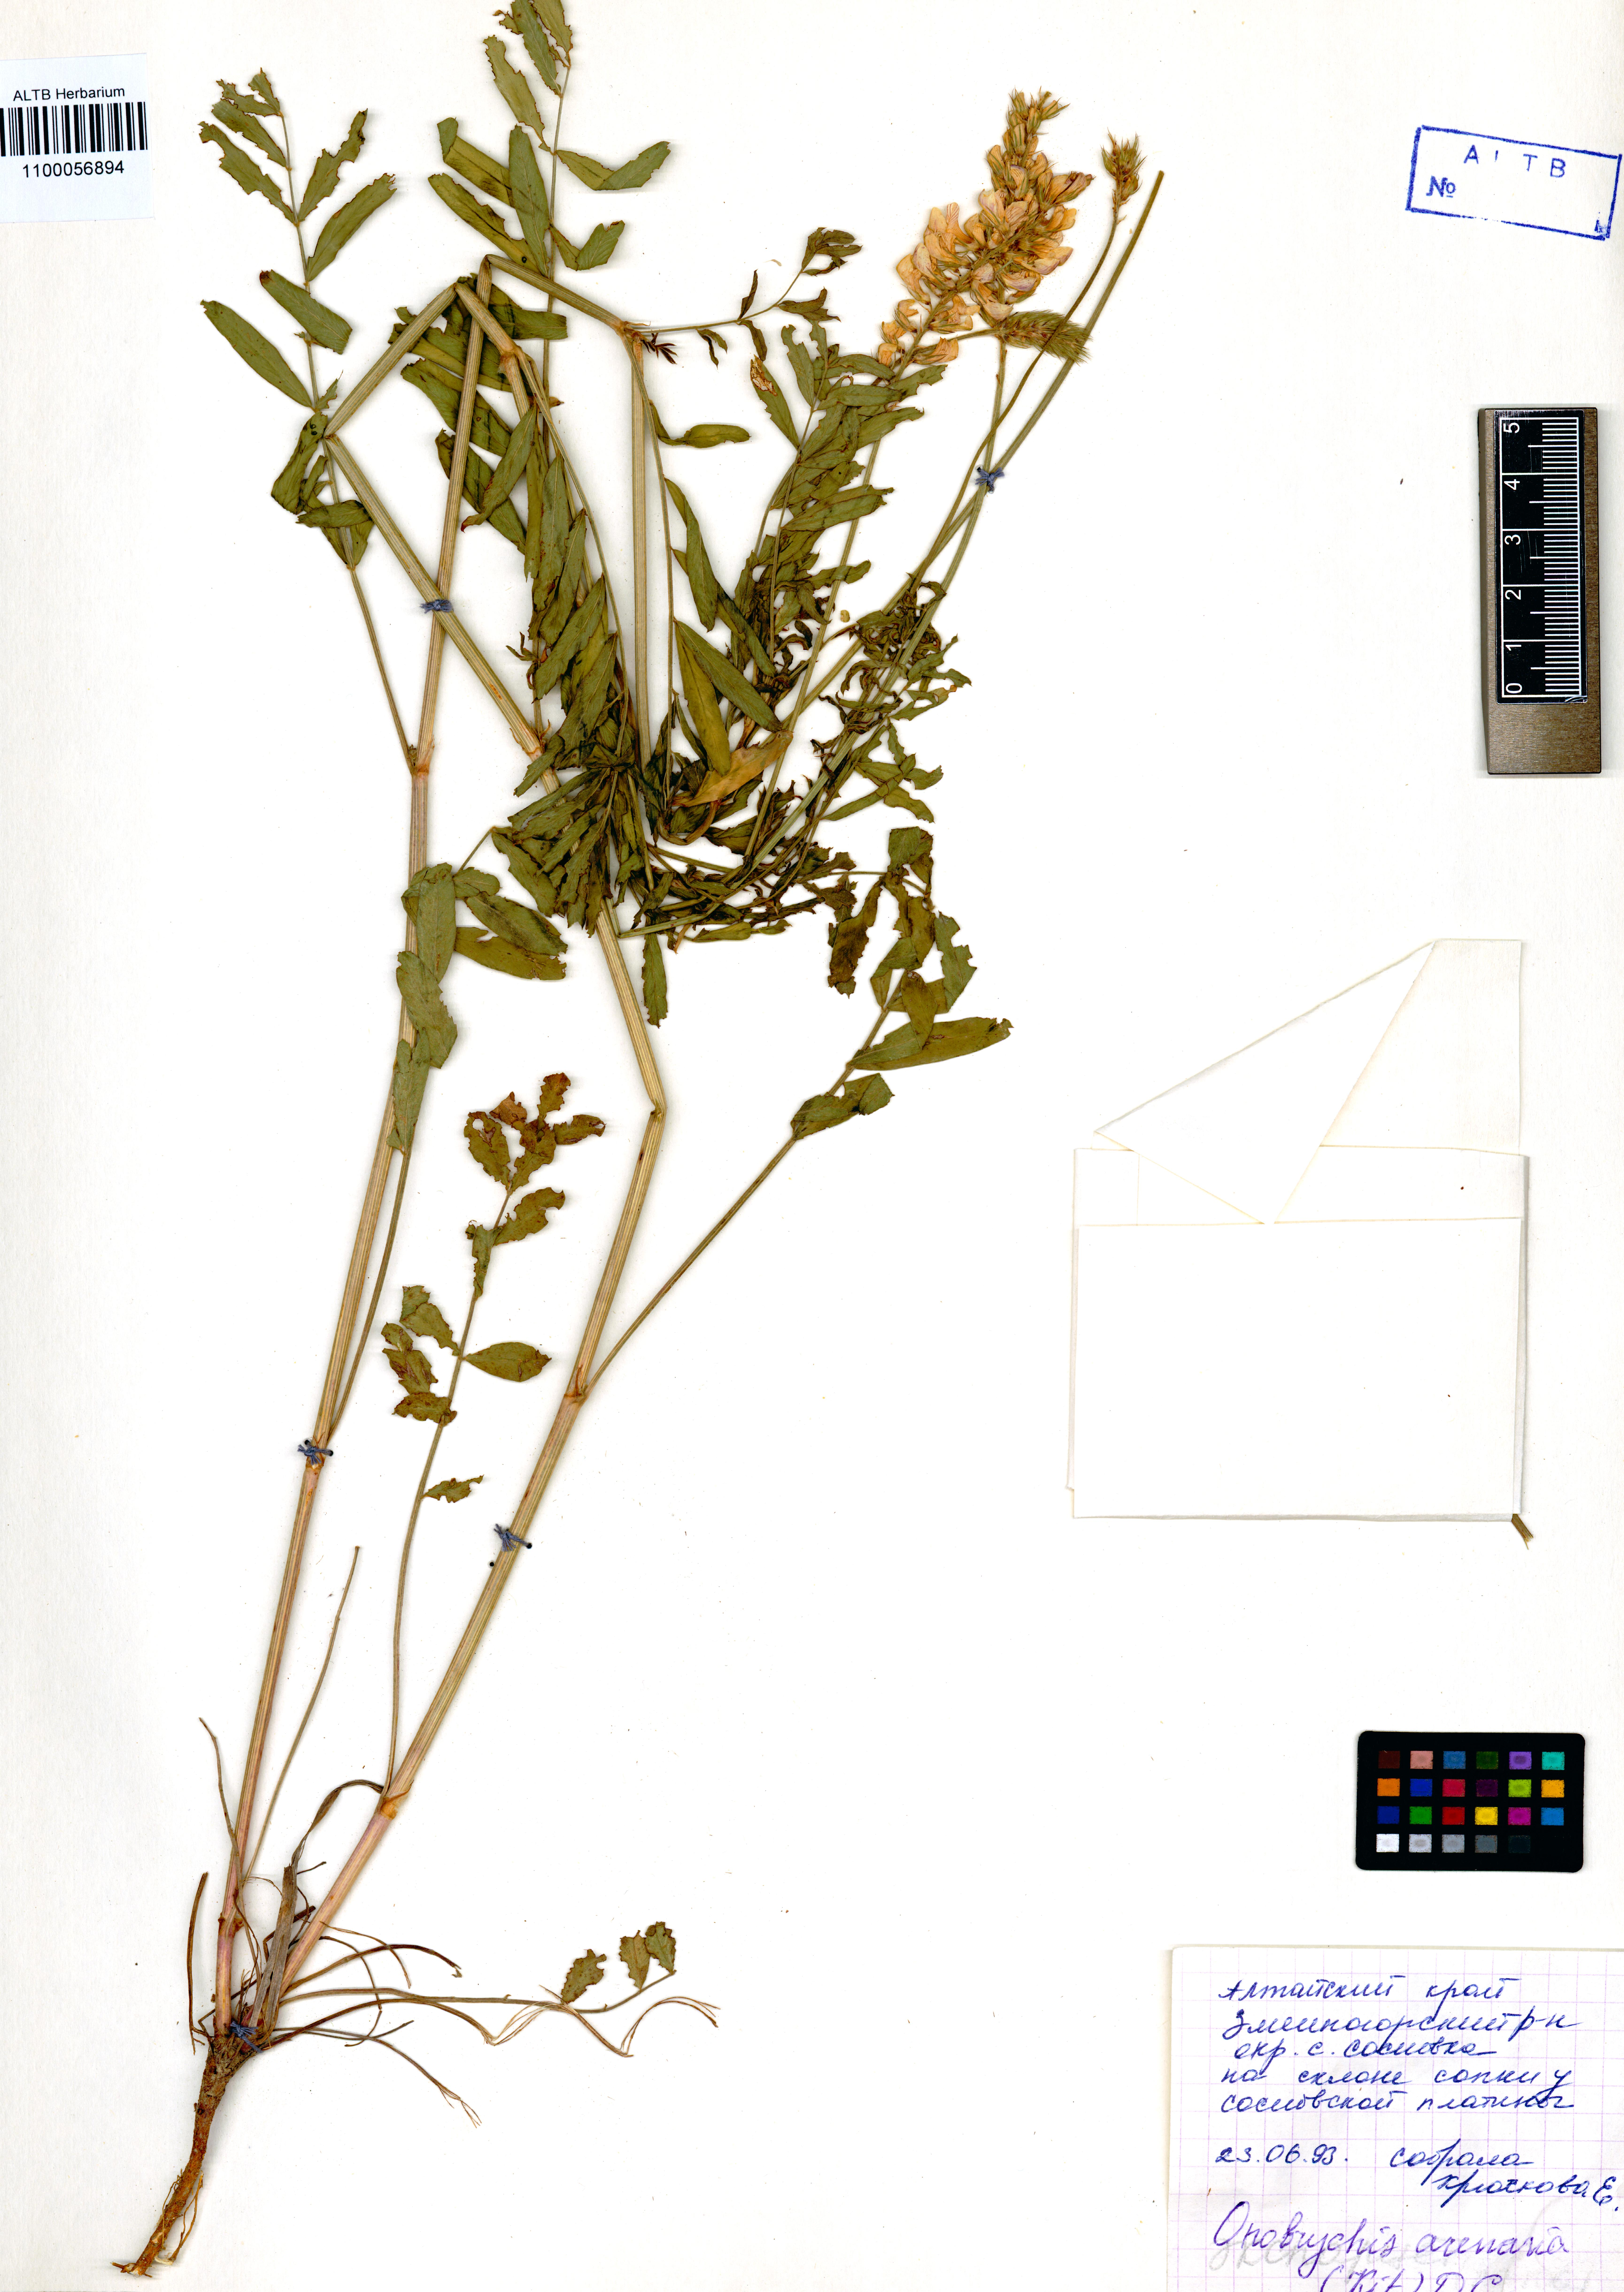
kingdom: Plantae
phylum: Tracheophyta
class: Magnoliopsida
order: Fabales
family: Fabaceae
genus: Onobrychis
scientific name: Onobrychis arenaria
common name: Sand esparcet
